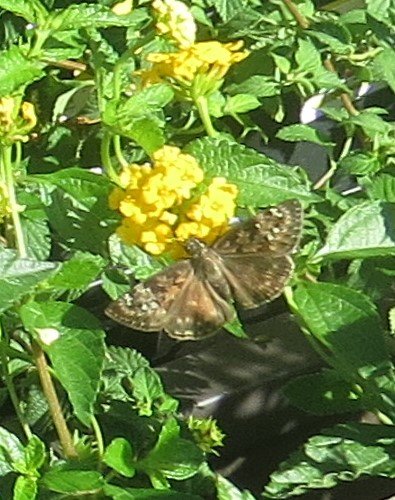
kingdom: Animalia
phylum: Arthropoda
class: Insecta
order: Lepidoptera
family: Hesperiidae
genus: Gesta
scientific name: Gesta
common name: Horace's Duskywing
